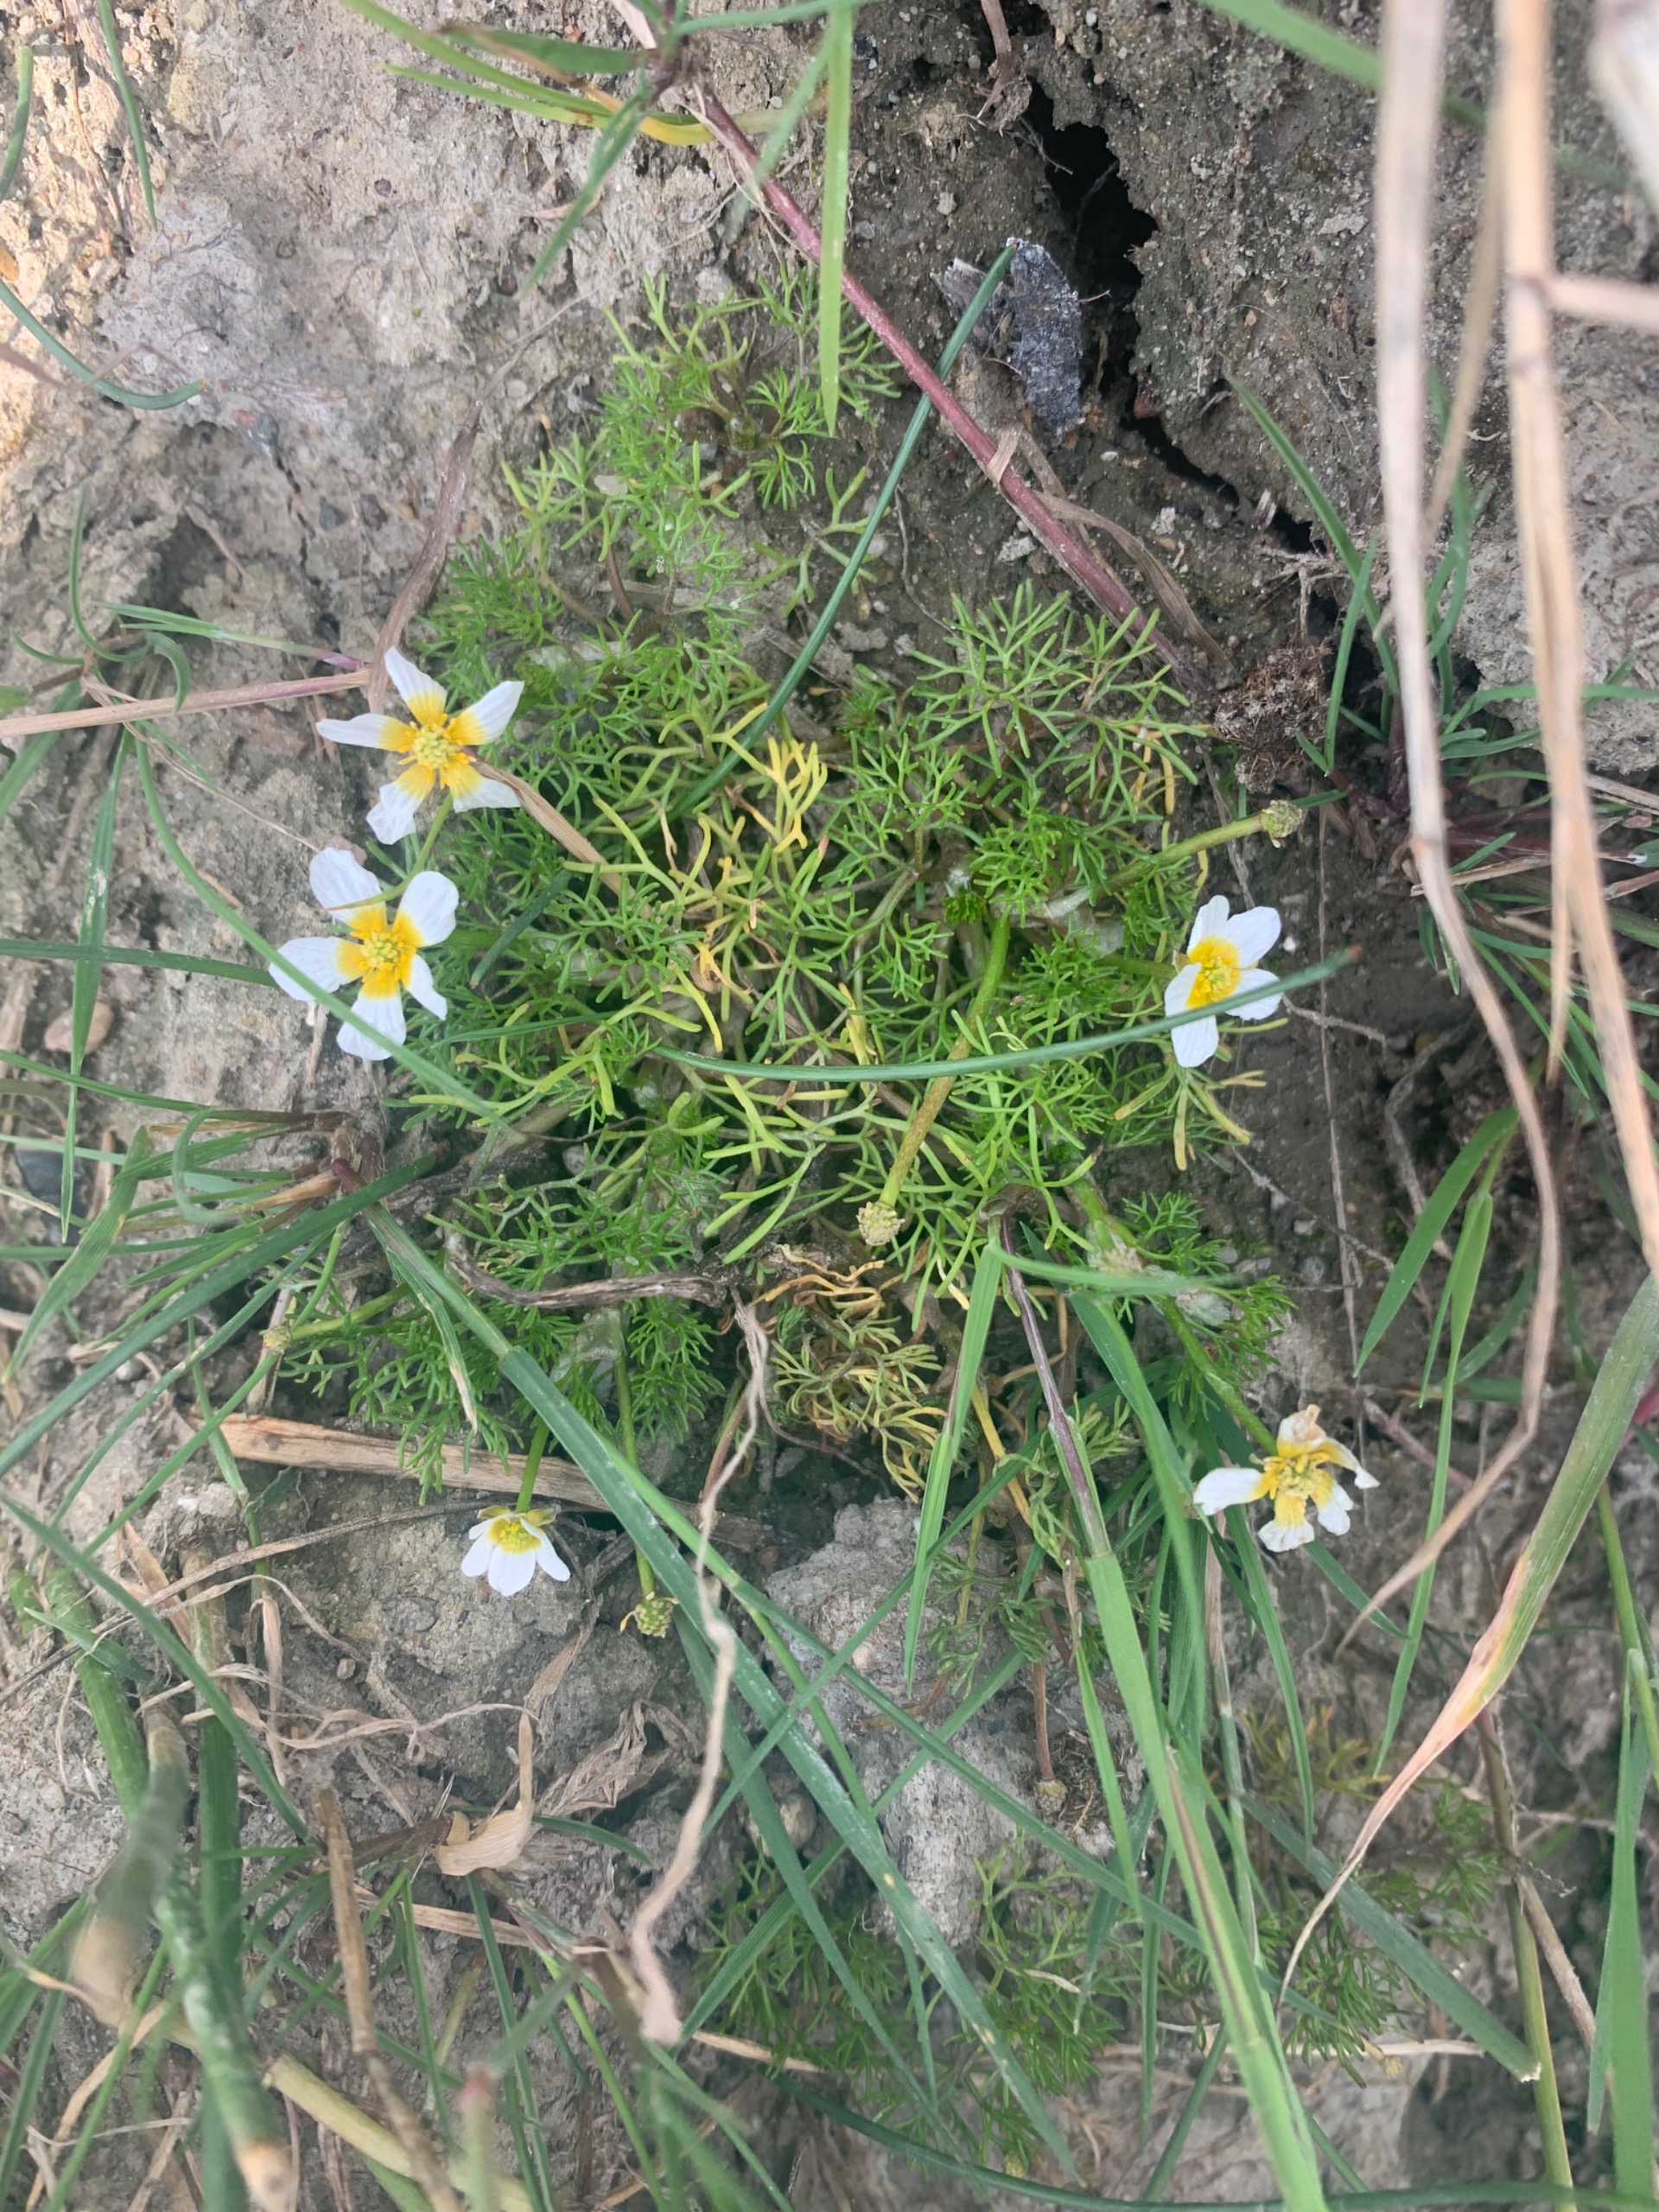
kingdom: Plantae
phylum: Tracheophyta
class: Magnoliopsida
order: Ranunculales
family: Ranunculaceae
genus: Ranunculus
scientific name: Ranunculus peltatus
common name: Strand-vandranunkel
